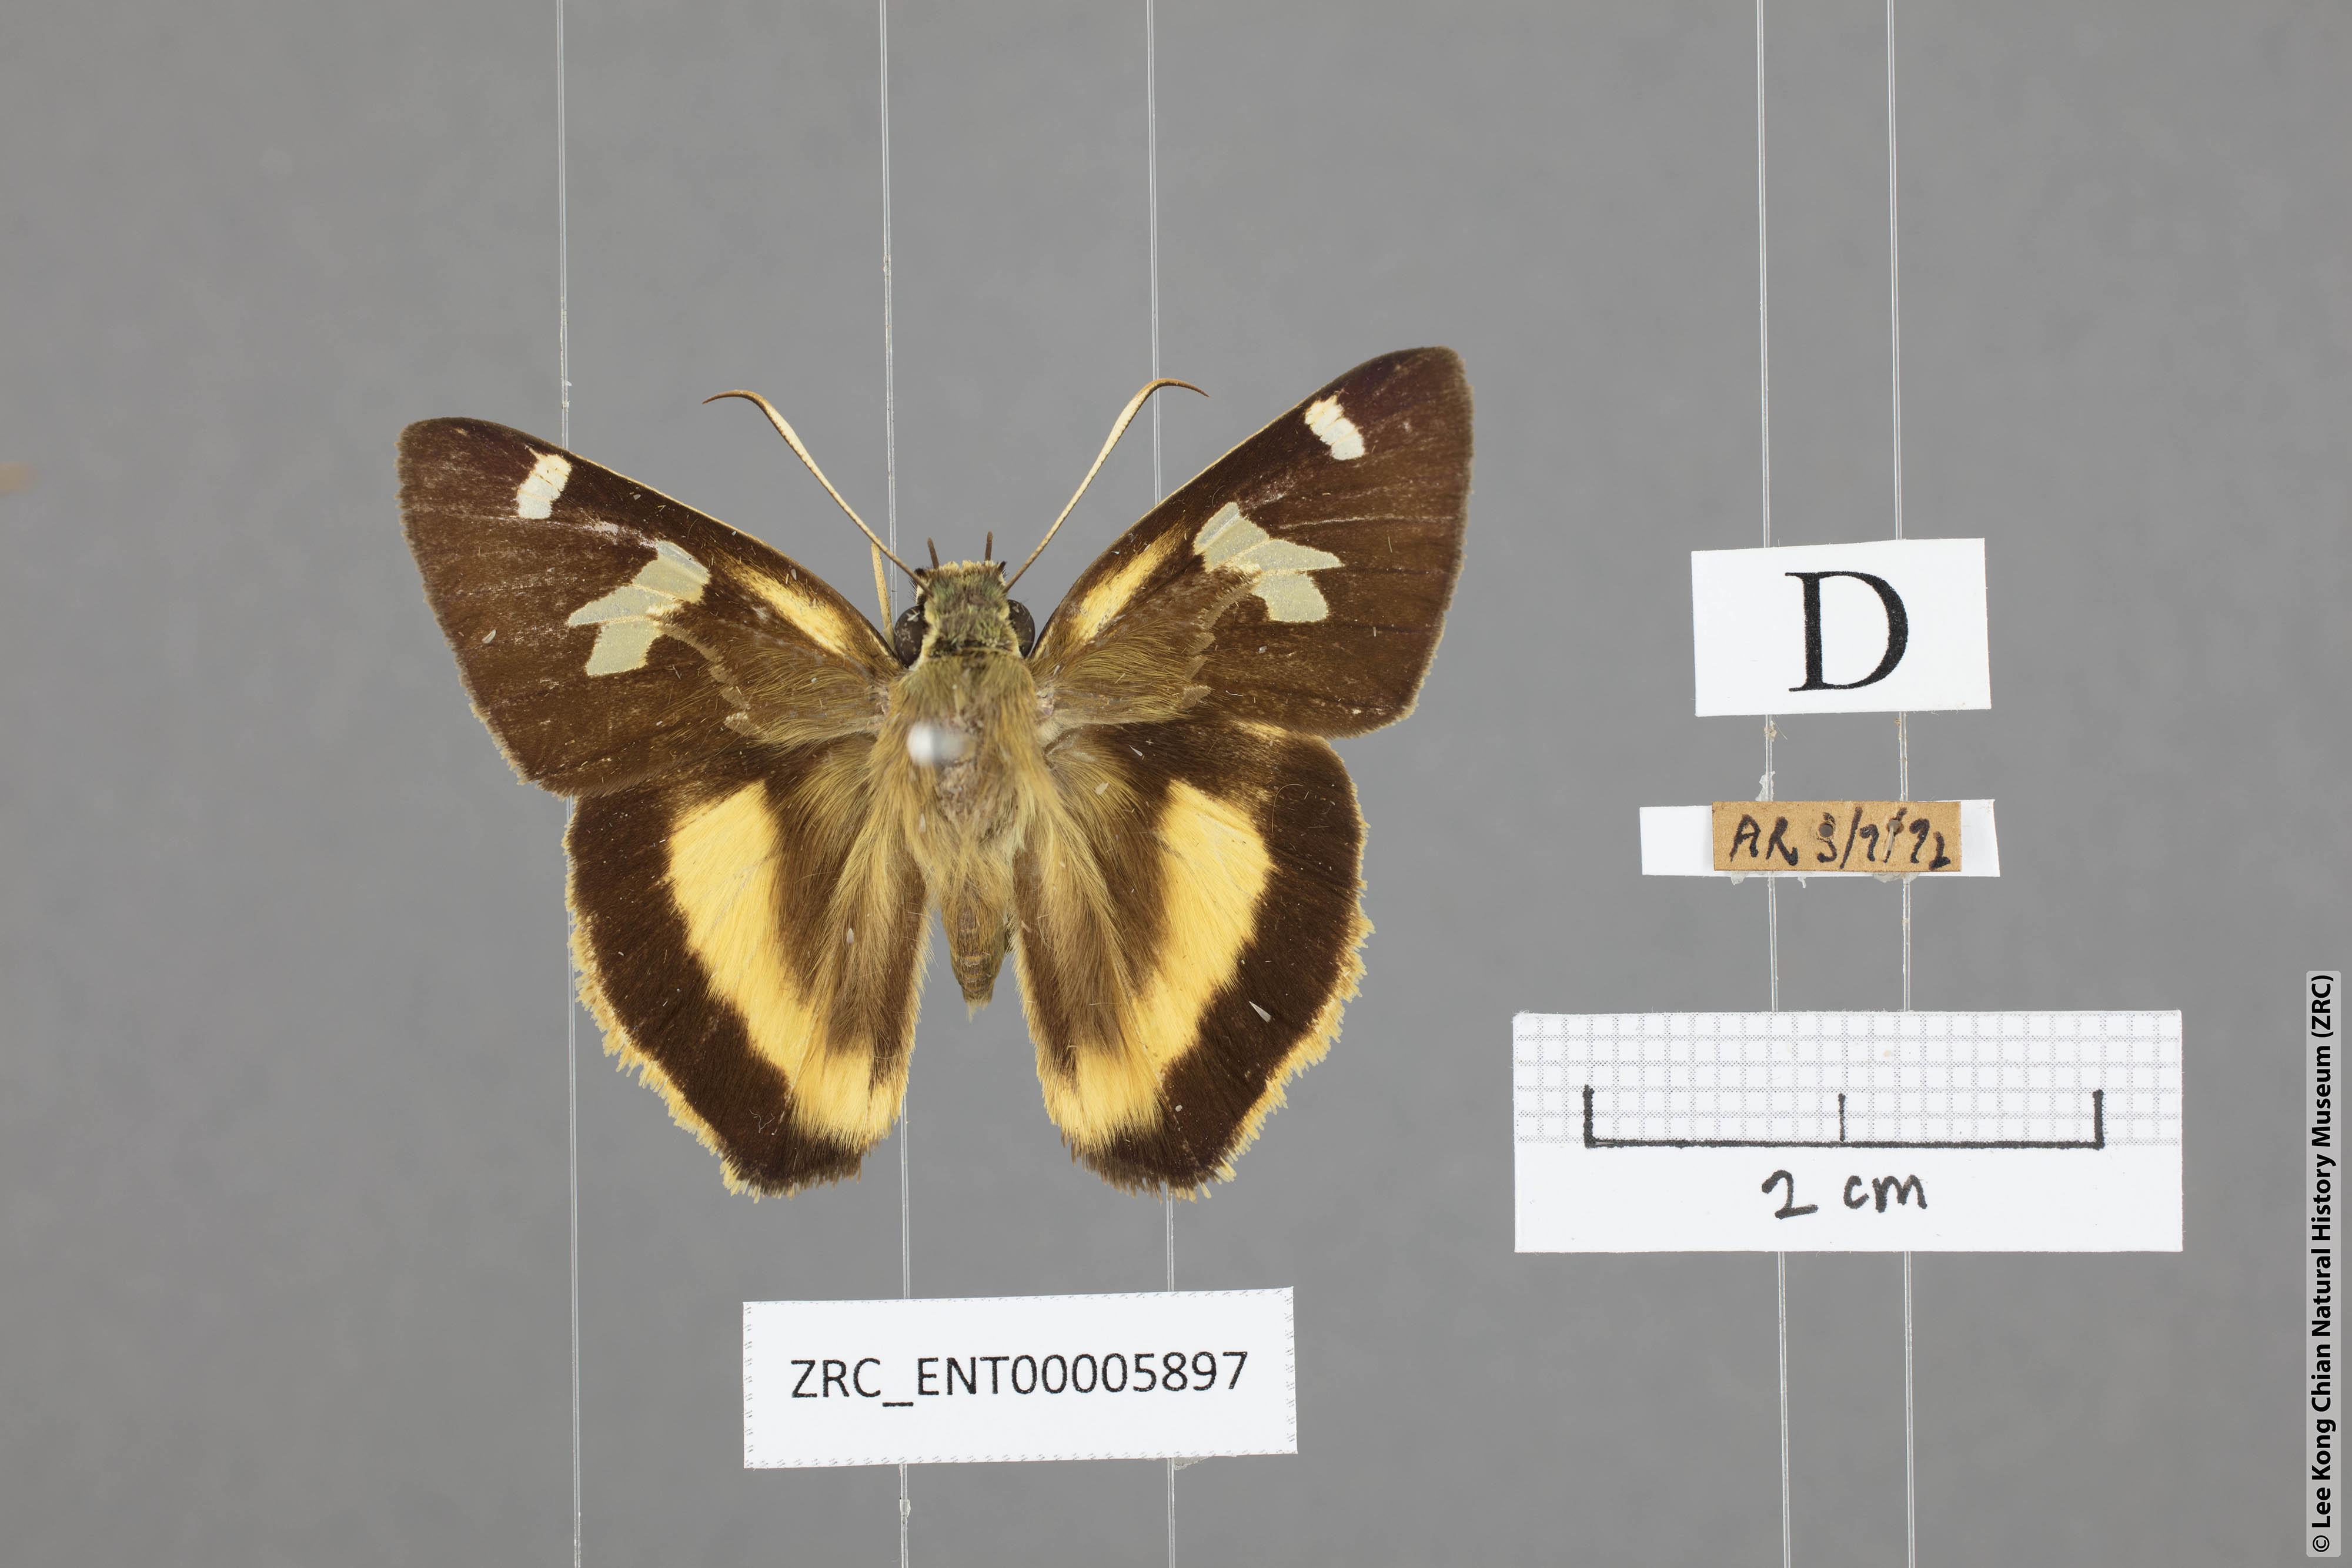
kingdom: Animalia
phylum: Arthropoda
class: Insecta
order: Lepidoptera
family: Hesperiidae
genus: Hasora
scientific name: Hasora schoenherr
